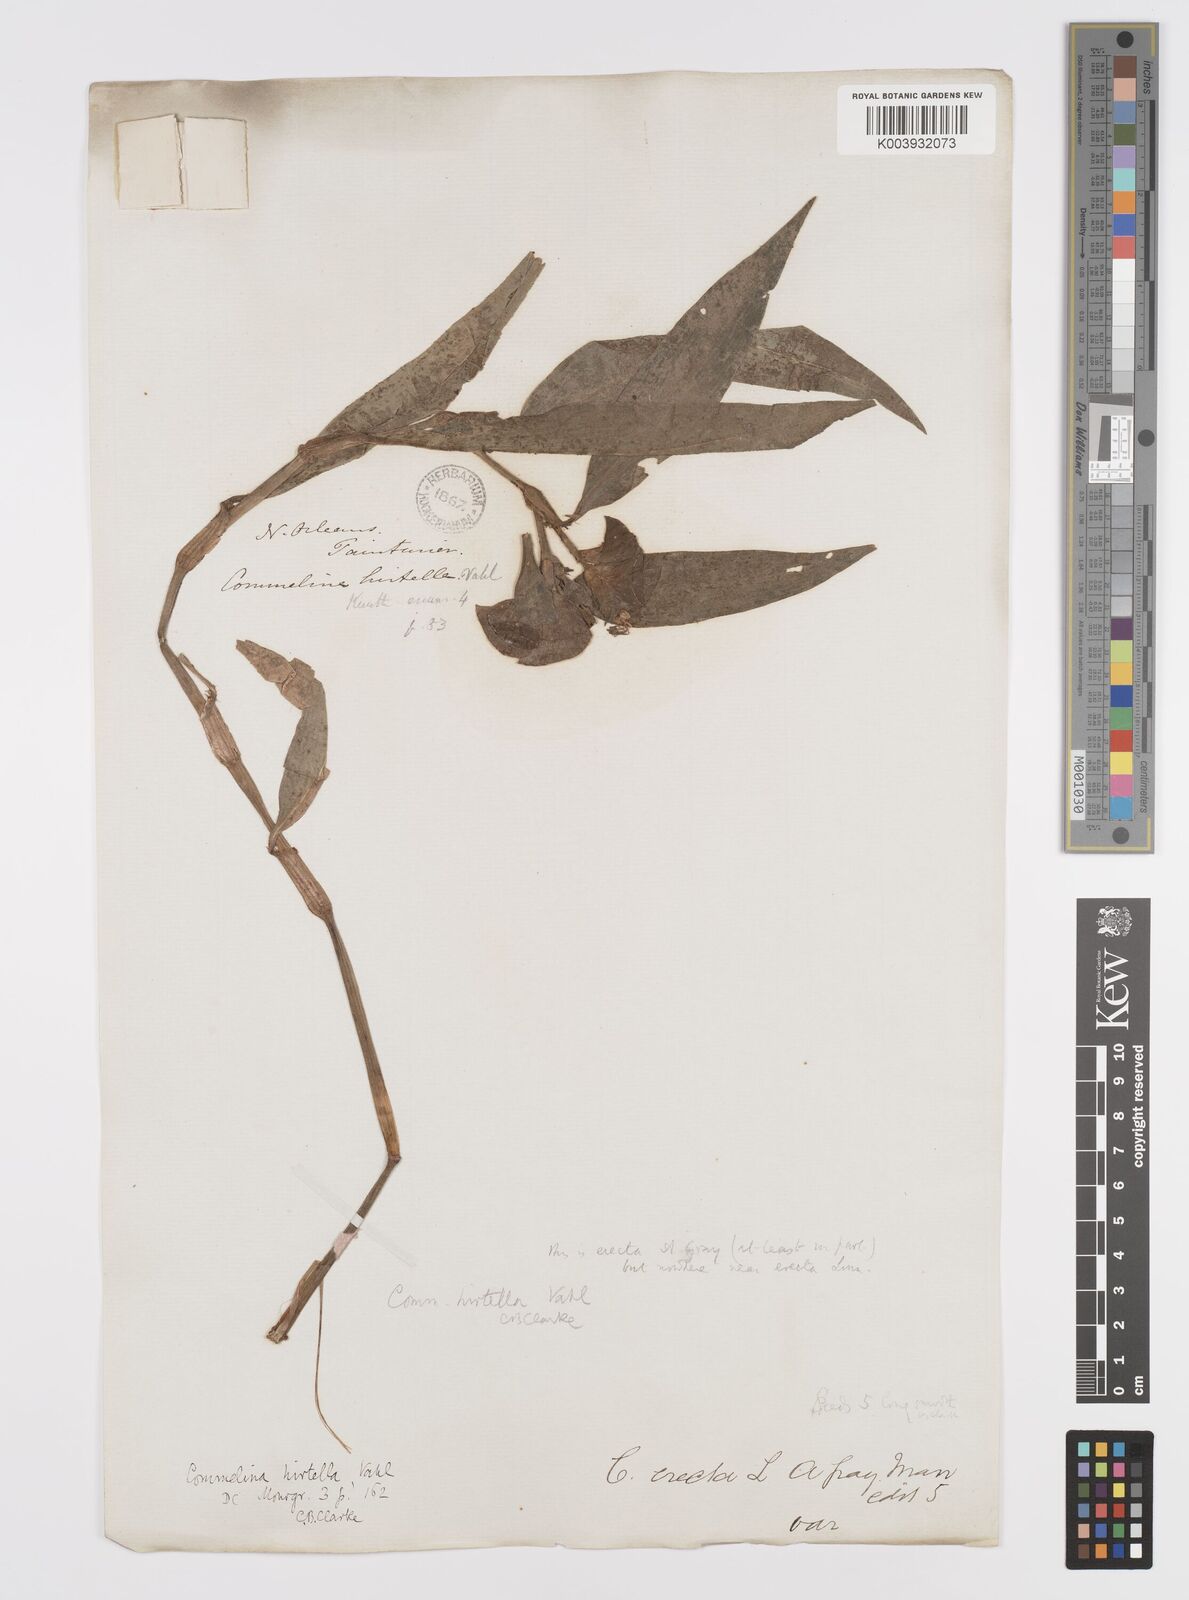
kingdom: Plantae
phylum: Tracheophyta
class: Liliopsida
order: Commelinales
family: Commelinaceae
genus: Commelina
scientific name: Commelina virginica
